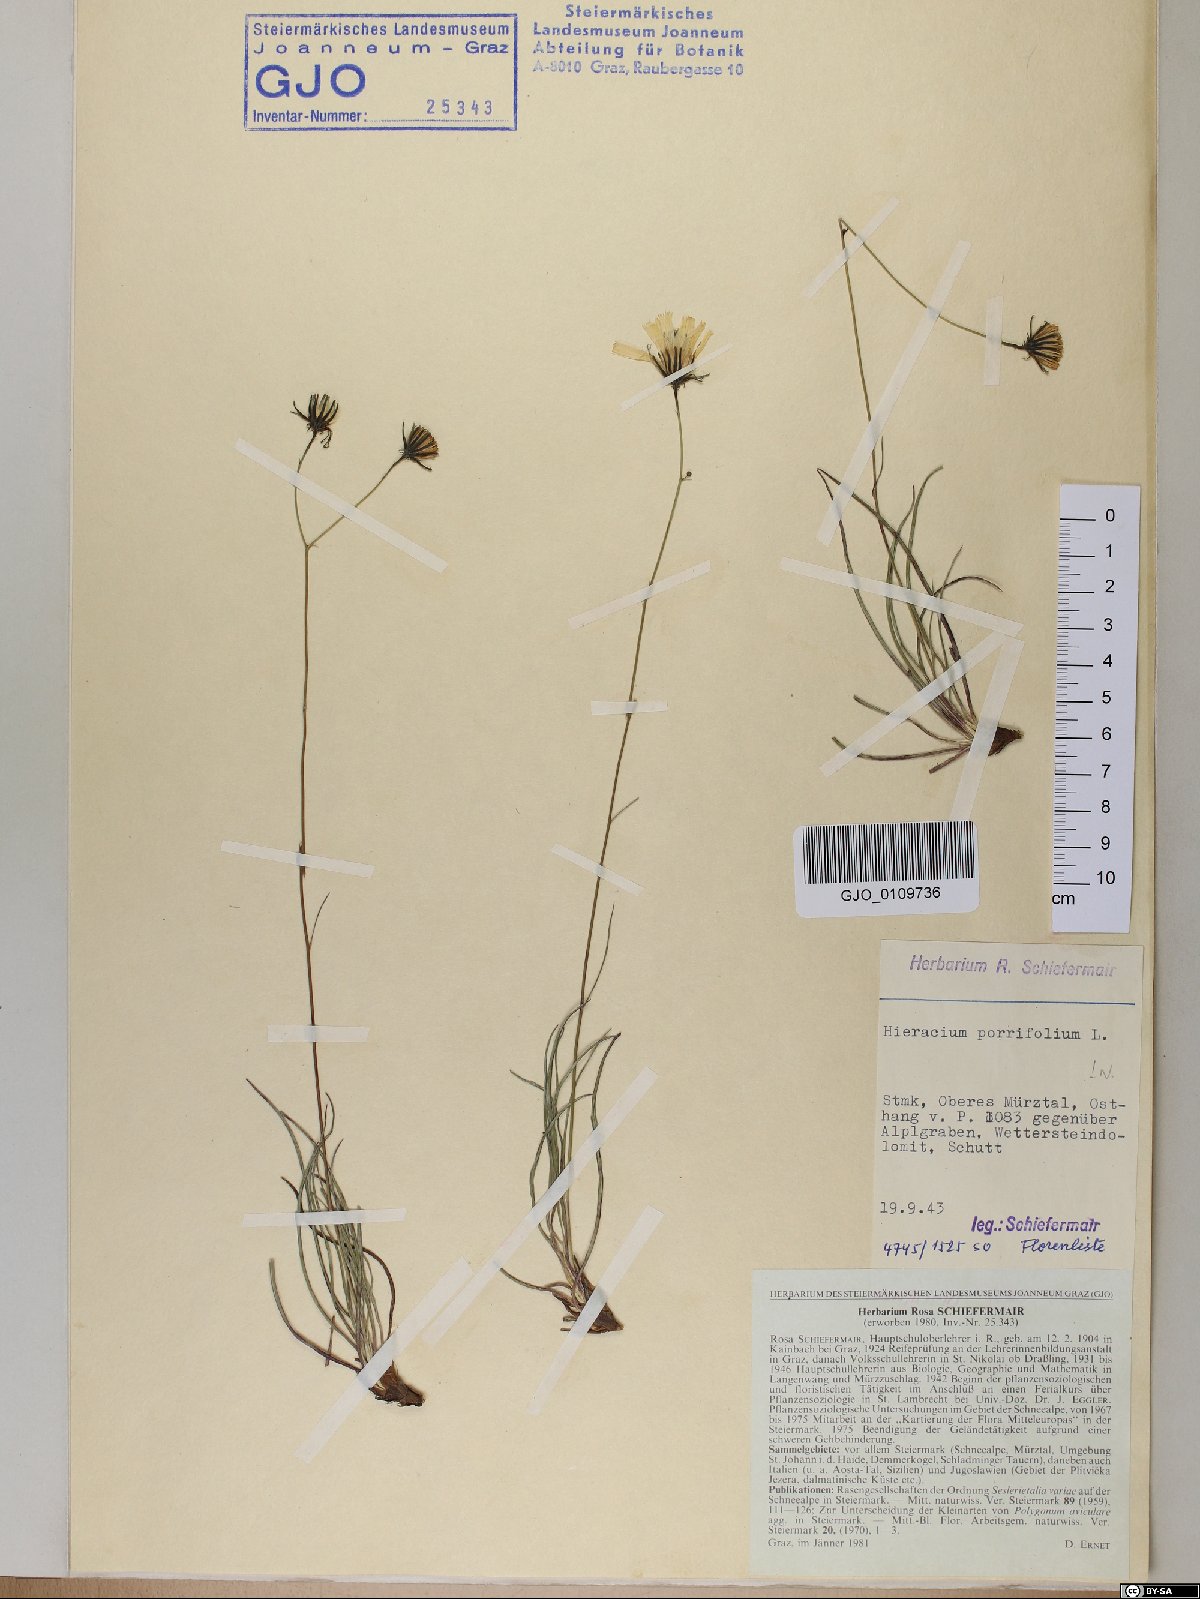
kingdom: Plantae
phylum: Tracheophyta
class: Magnoliopsida
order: Asterales
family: Asteraceae
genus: Hieracium
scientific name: Hieracium porrifolium
